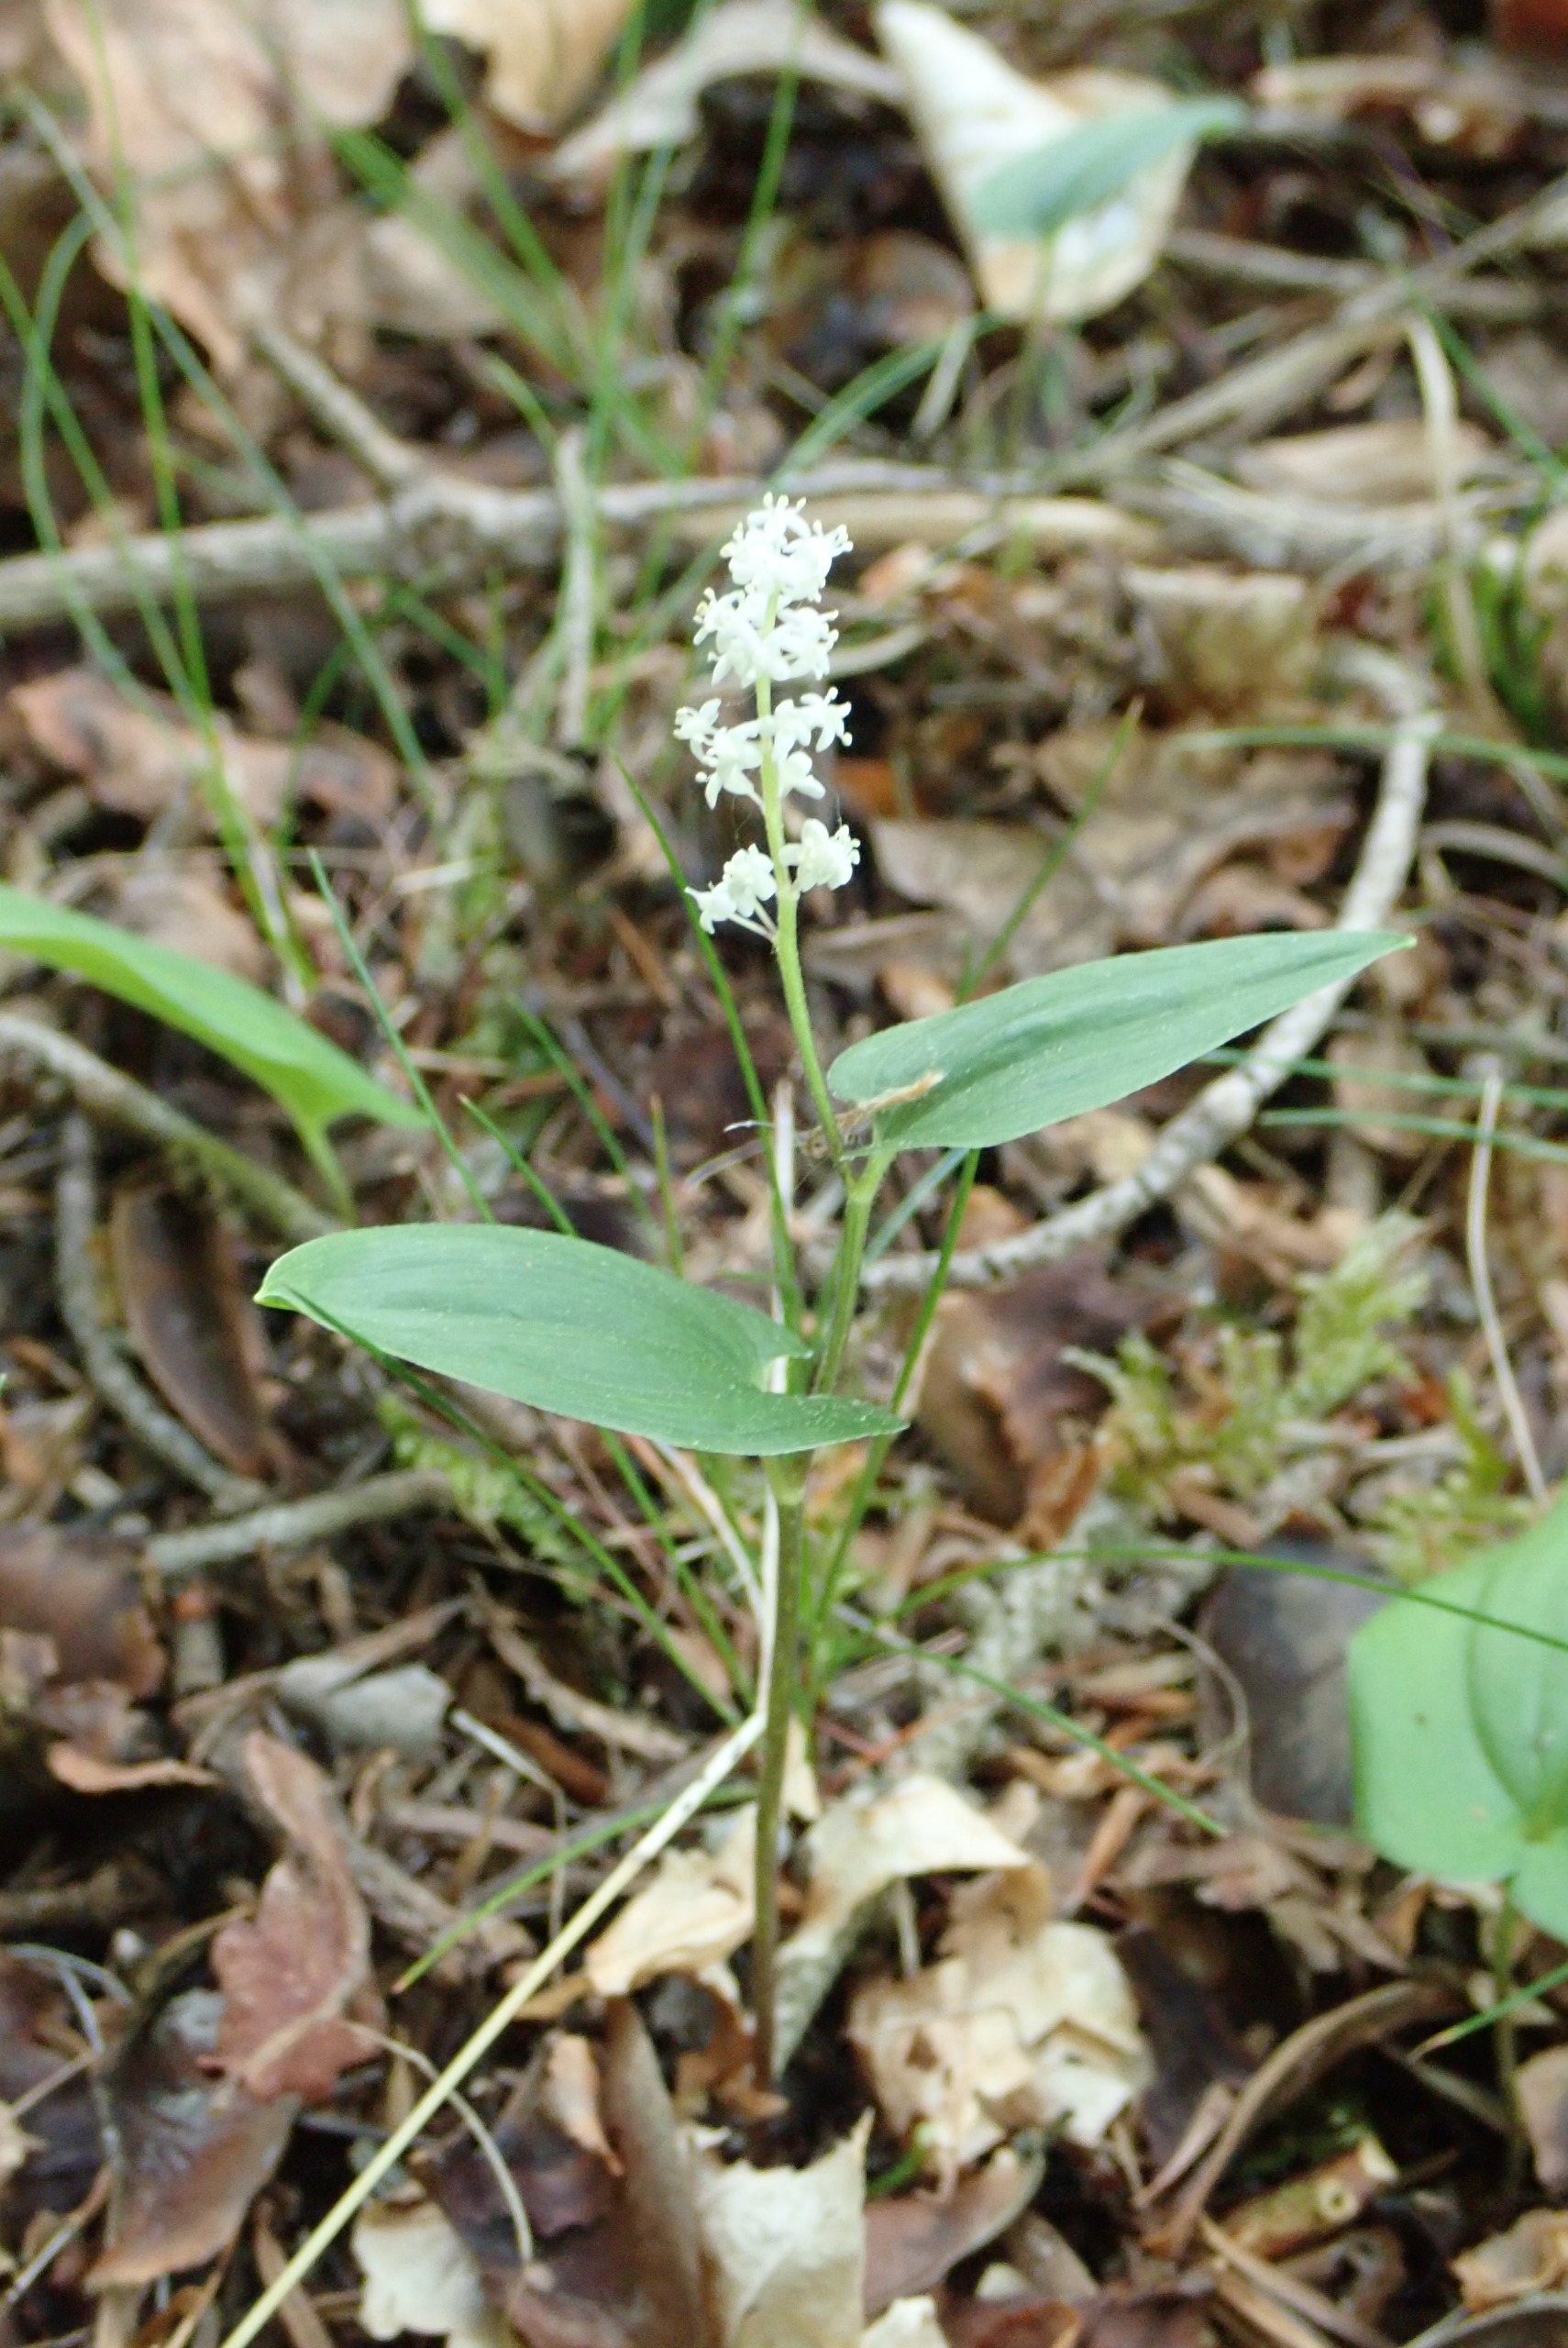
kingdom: Plantae
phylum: Tracheophyta
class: Liliopsida
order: Asparagales
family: Asparagaceae
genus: Maianthemum
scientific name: Maianthemum bifolium
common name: Majblomst
